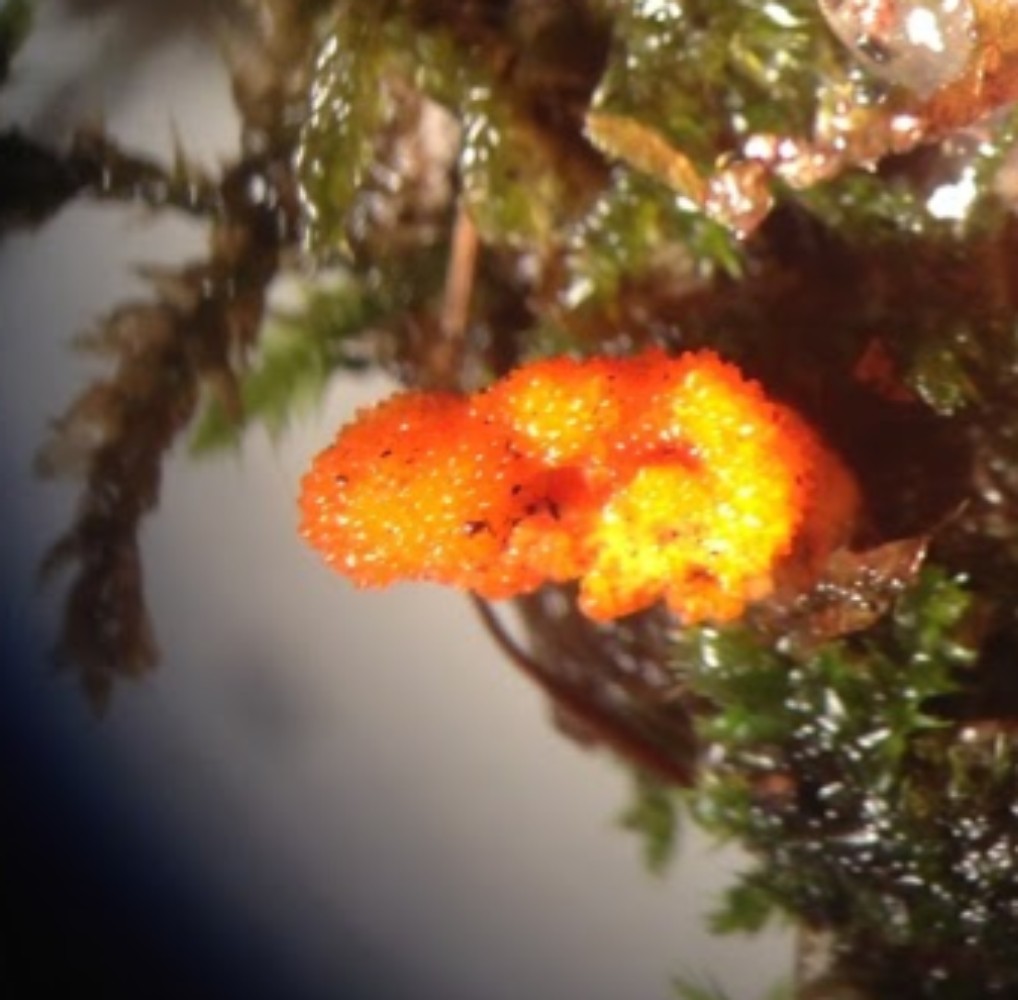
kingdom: Fungi
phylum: Ascomycota
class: Sordariomycetes
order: Hypocreales
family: Cordycipitaceae
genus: Cordyceps
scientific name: Cordyceps militaris
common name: puppe-snyltekølle
